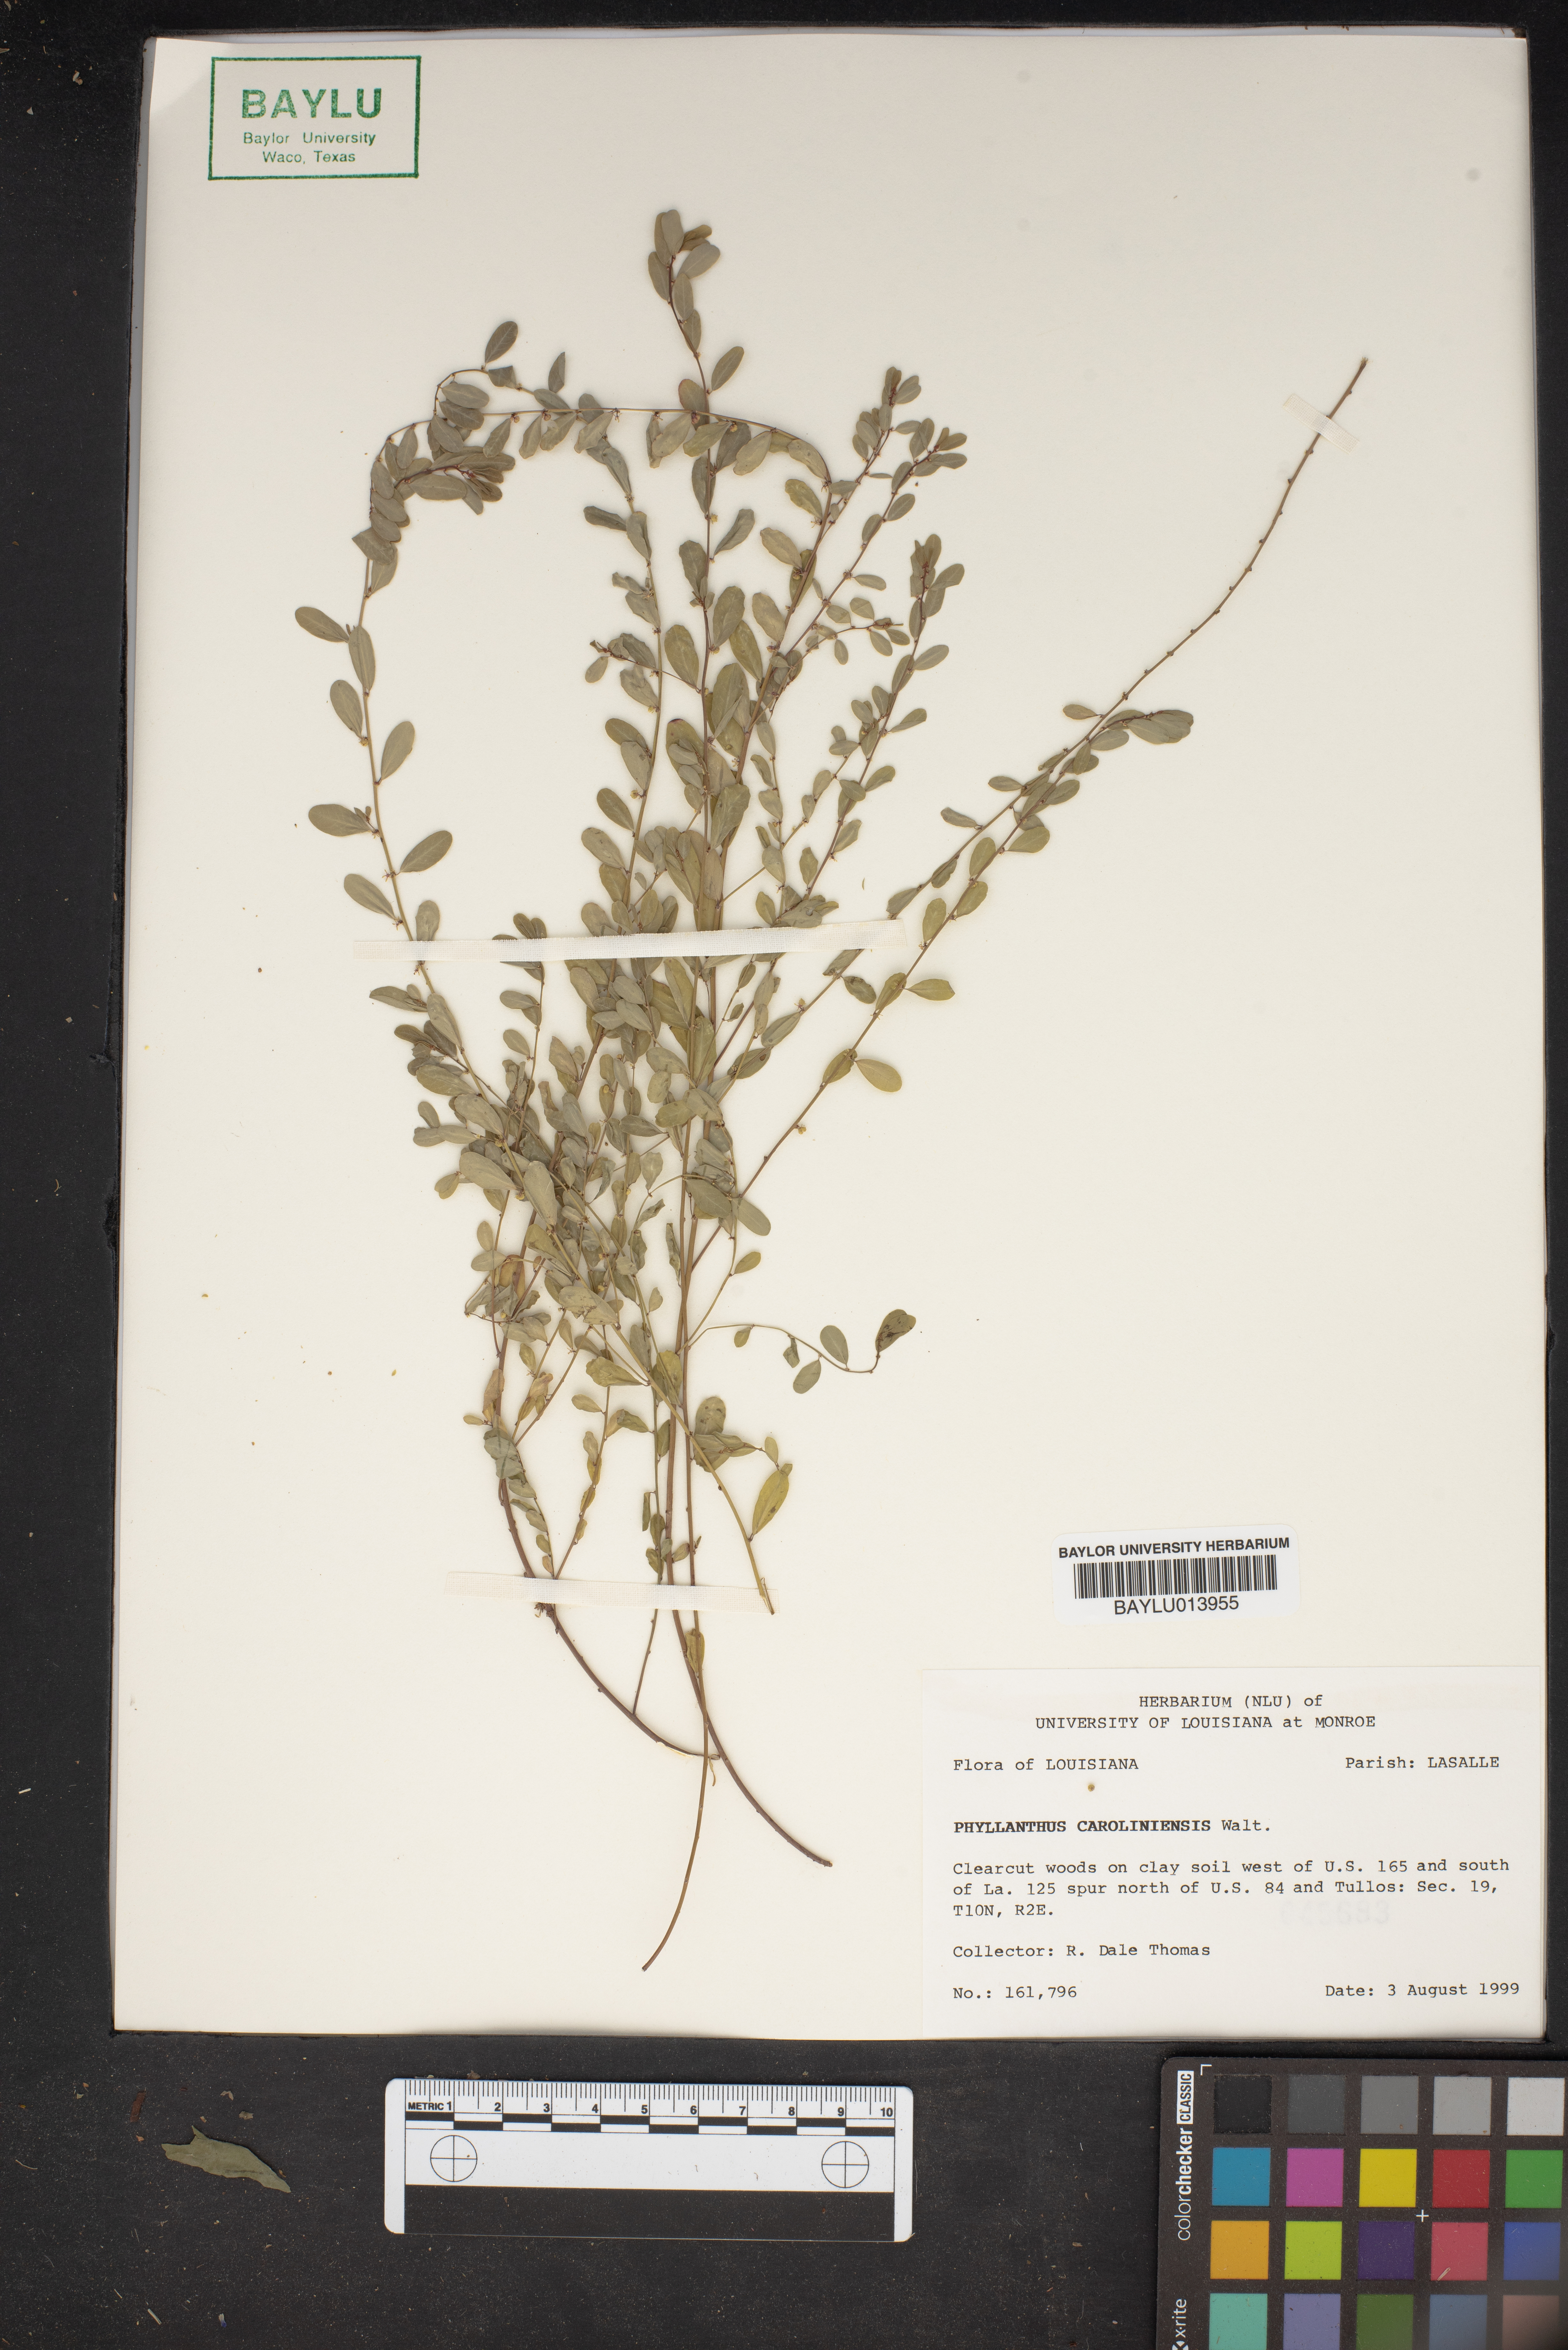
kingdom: Plantae
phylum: Tracheophyta
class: Magnoliopsida
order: Malpighiales
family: Phyllanthaceae
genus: Phyllanthus
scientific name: Phyllanthus carolinensis
